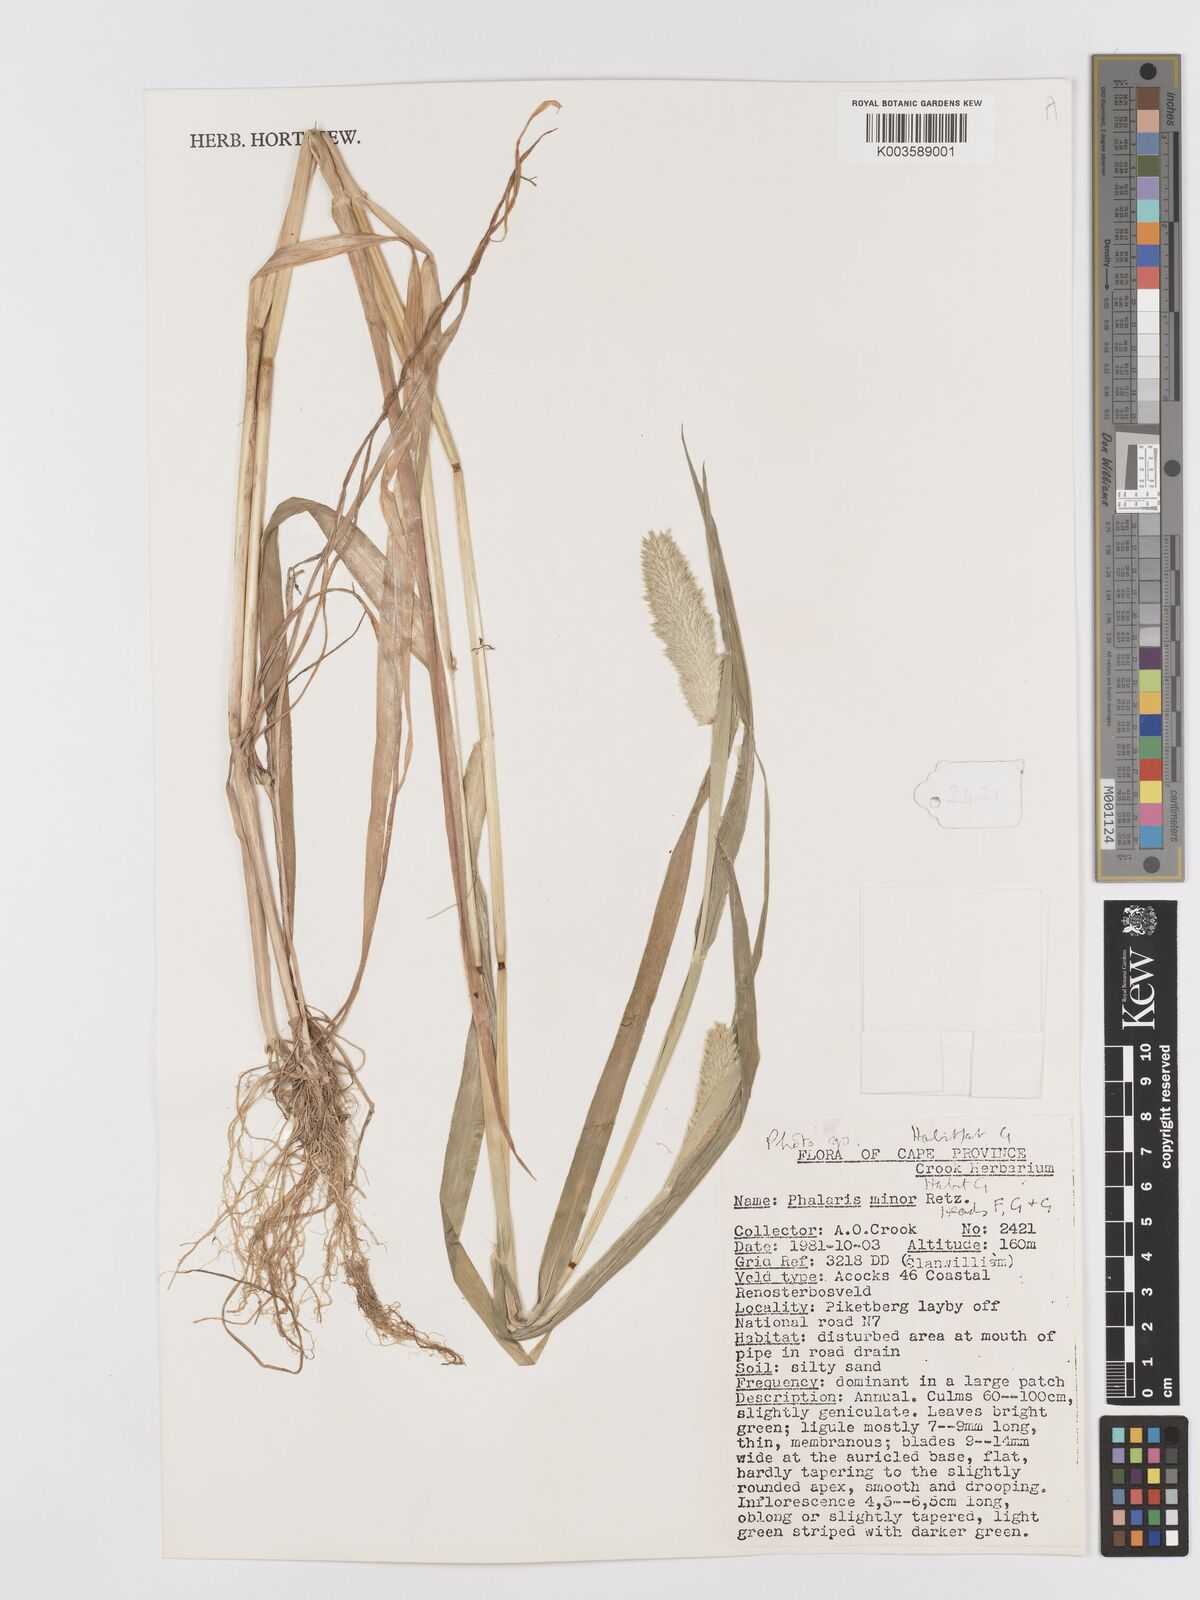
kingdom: Plantae
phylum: Tracheophyta
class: Liliopsida
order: Poales
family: Poaceae
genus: Phalaris
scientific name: Phalaris minor
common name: Littleseed canarygrass
